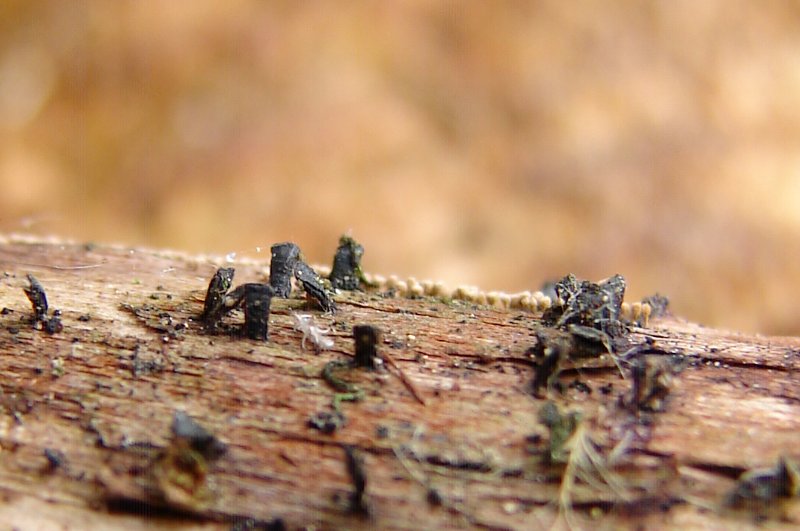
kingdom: Fungi
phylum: Ascomycota
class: Eurotiomycetes
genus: Glyphium
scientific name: Glyphium elatum
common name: kuløkse
